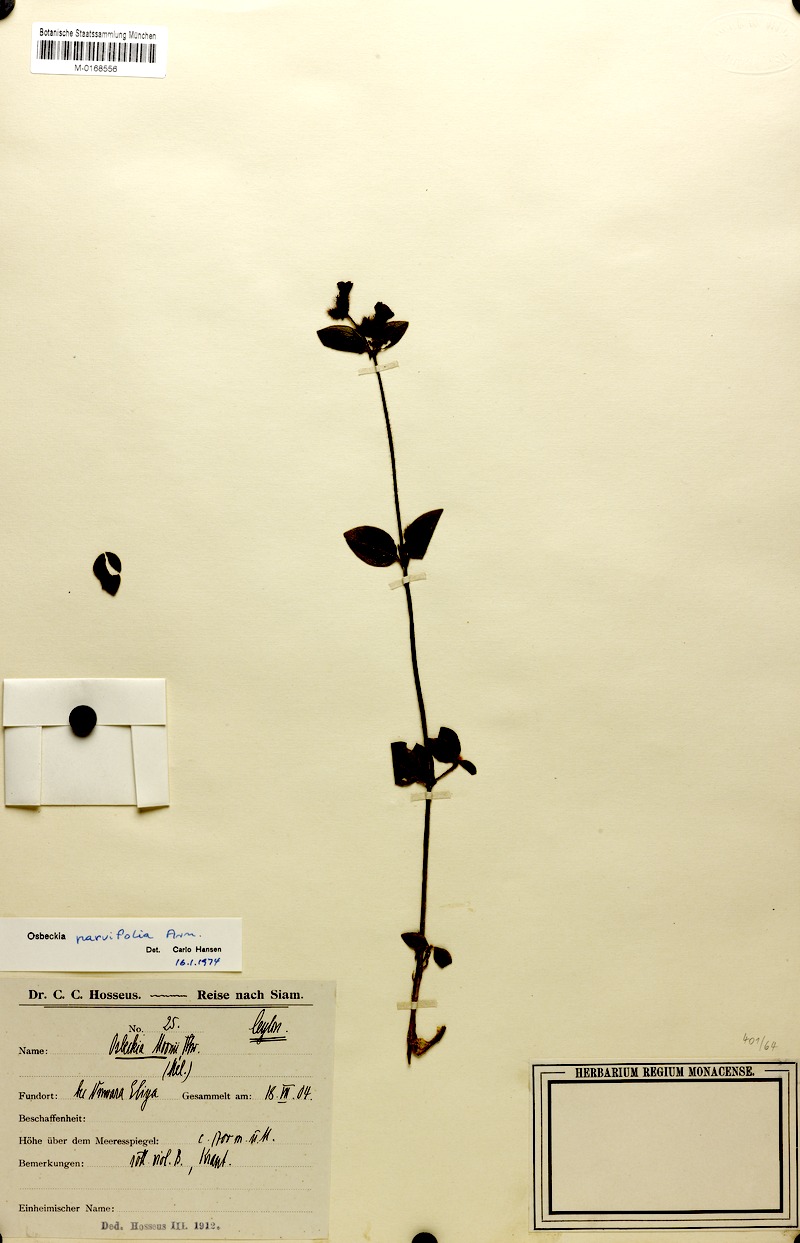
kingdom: Plantae
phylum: Tracheophyta
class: Magnoliopsida
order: Myrtales
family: Melastomataceae
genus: Osbeckia
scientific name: Osbeckia parvifolia
